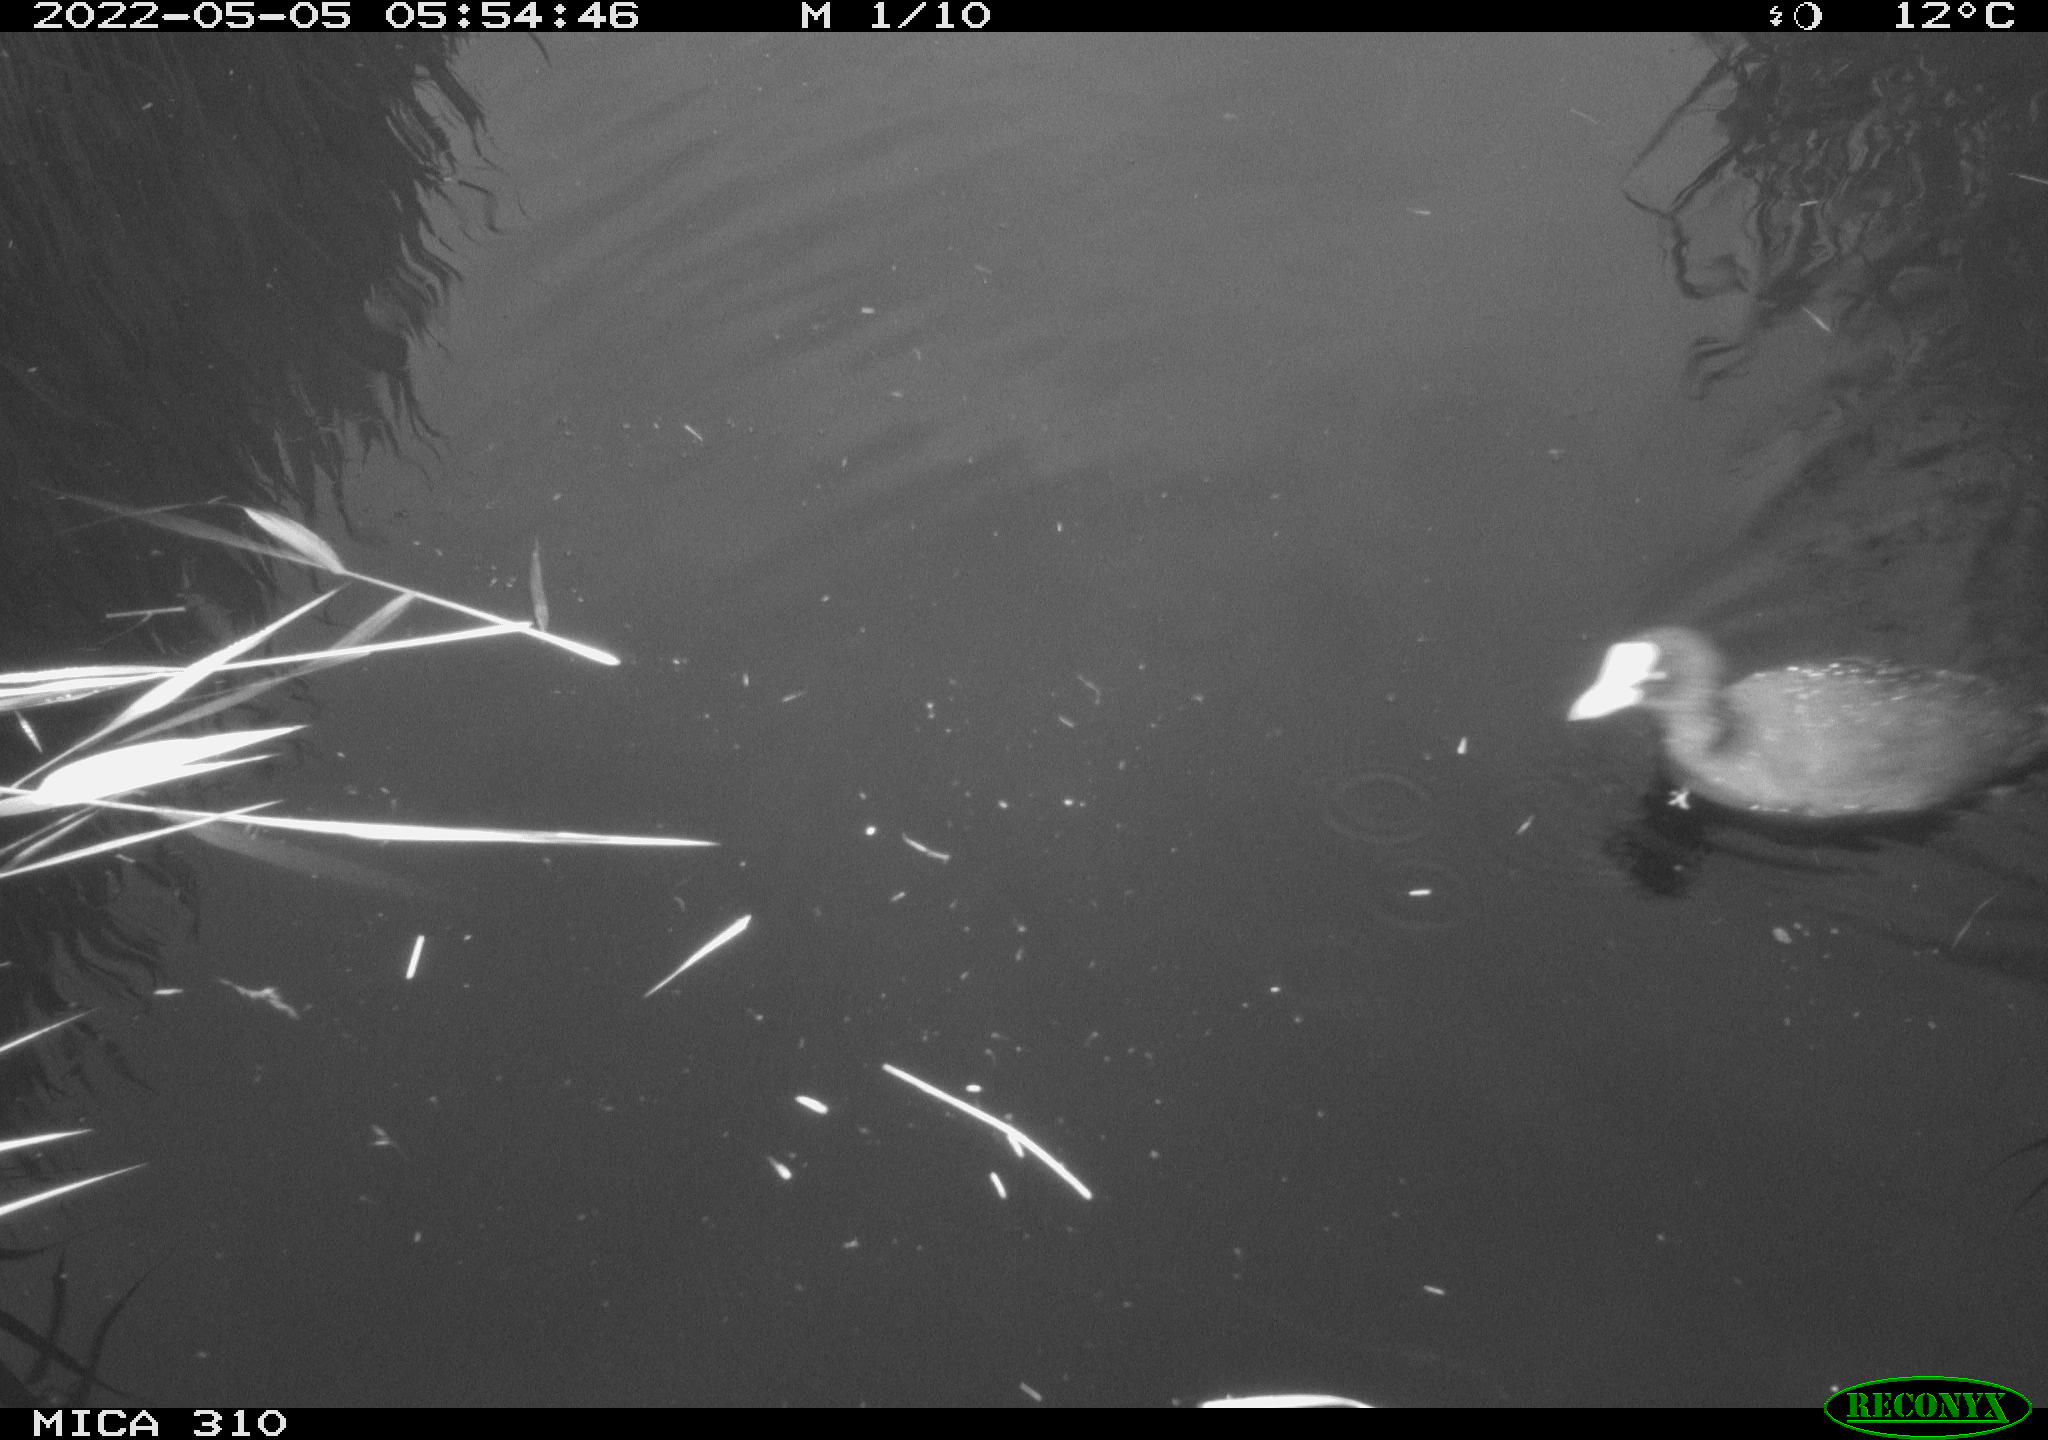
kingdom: Animalia
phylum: Chordata
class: Aves
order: Gruiformes
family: Rallidae
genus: Fulica
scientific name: Fulica atra
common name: Eurasian coot
